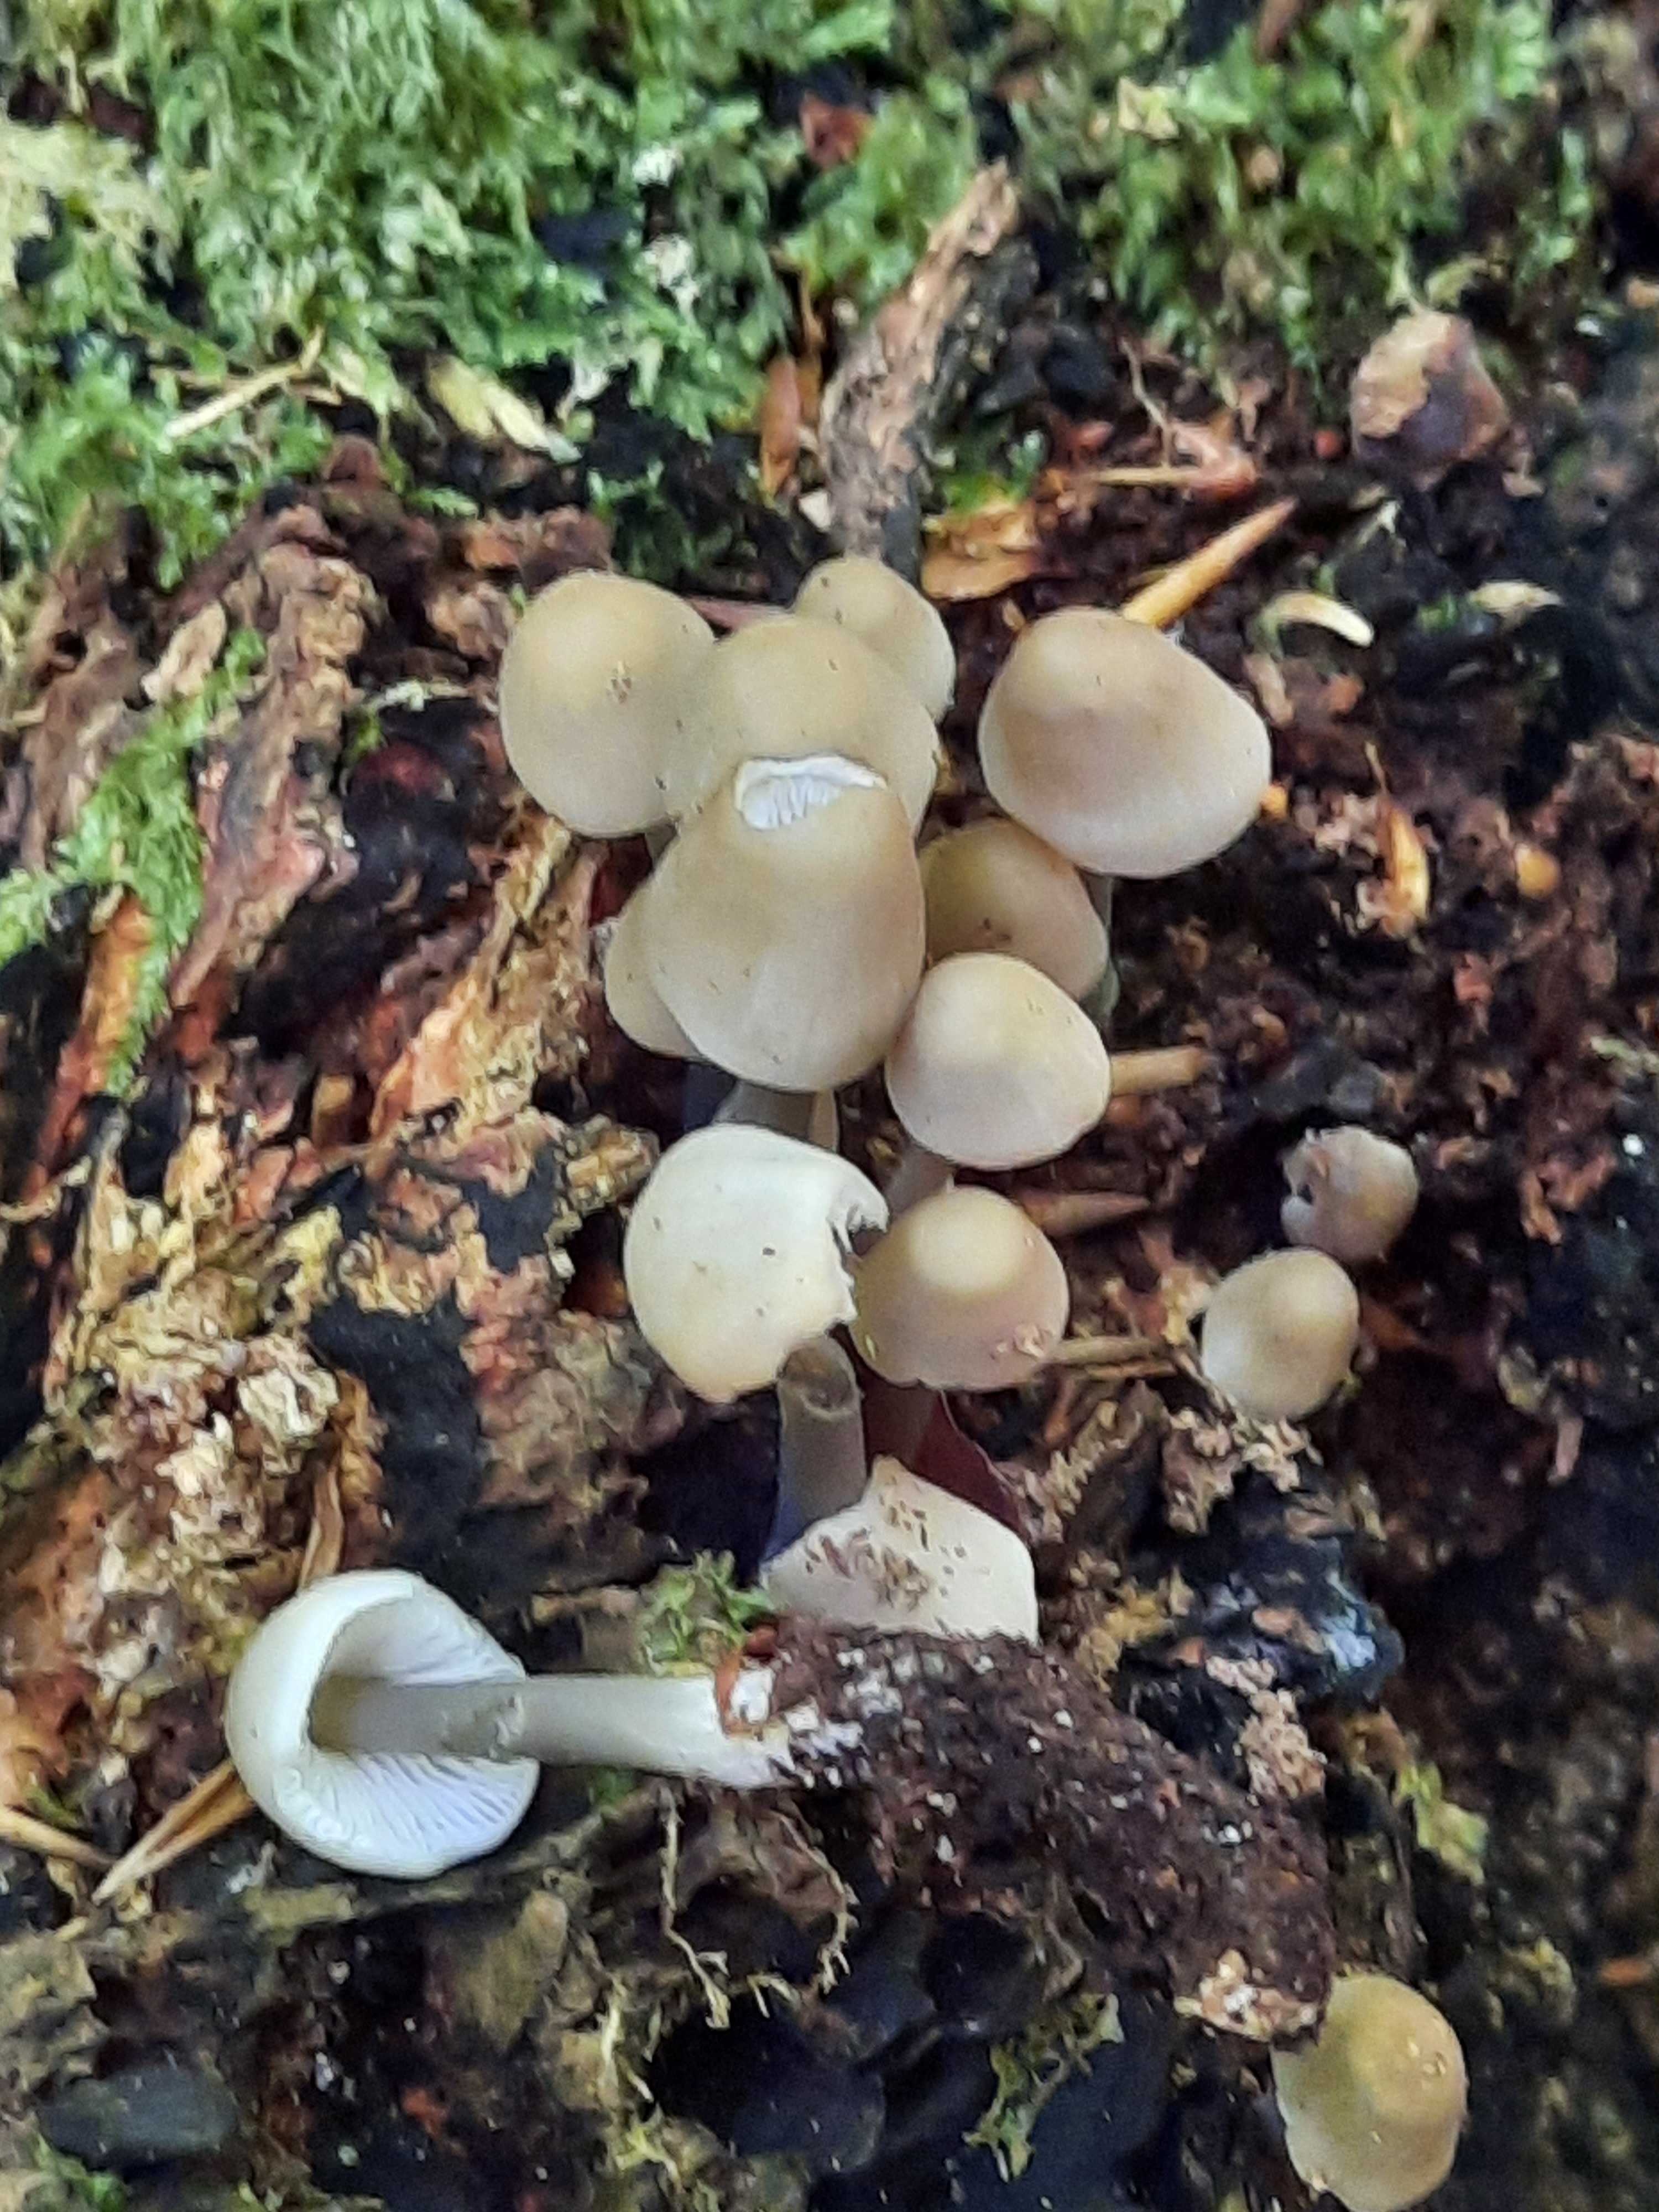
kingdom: Fungi
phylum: Basidiomycota
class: Agaricomycetes
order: Agaricales
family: Mycenaceae
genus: Mycena
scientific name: Mycena galericulata
